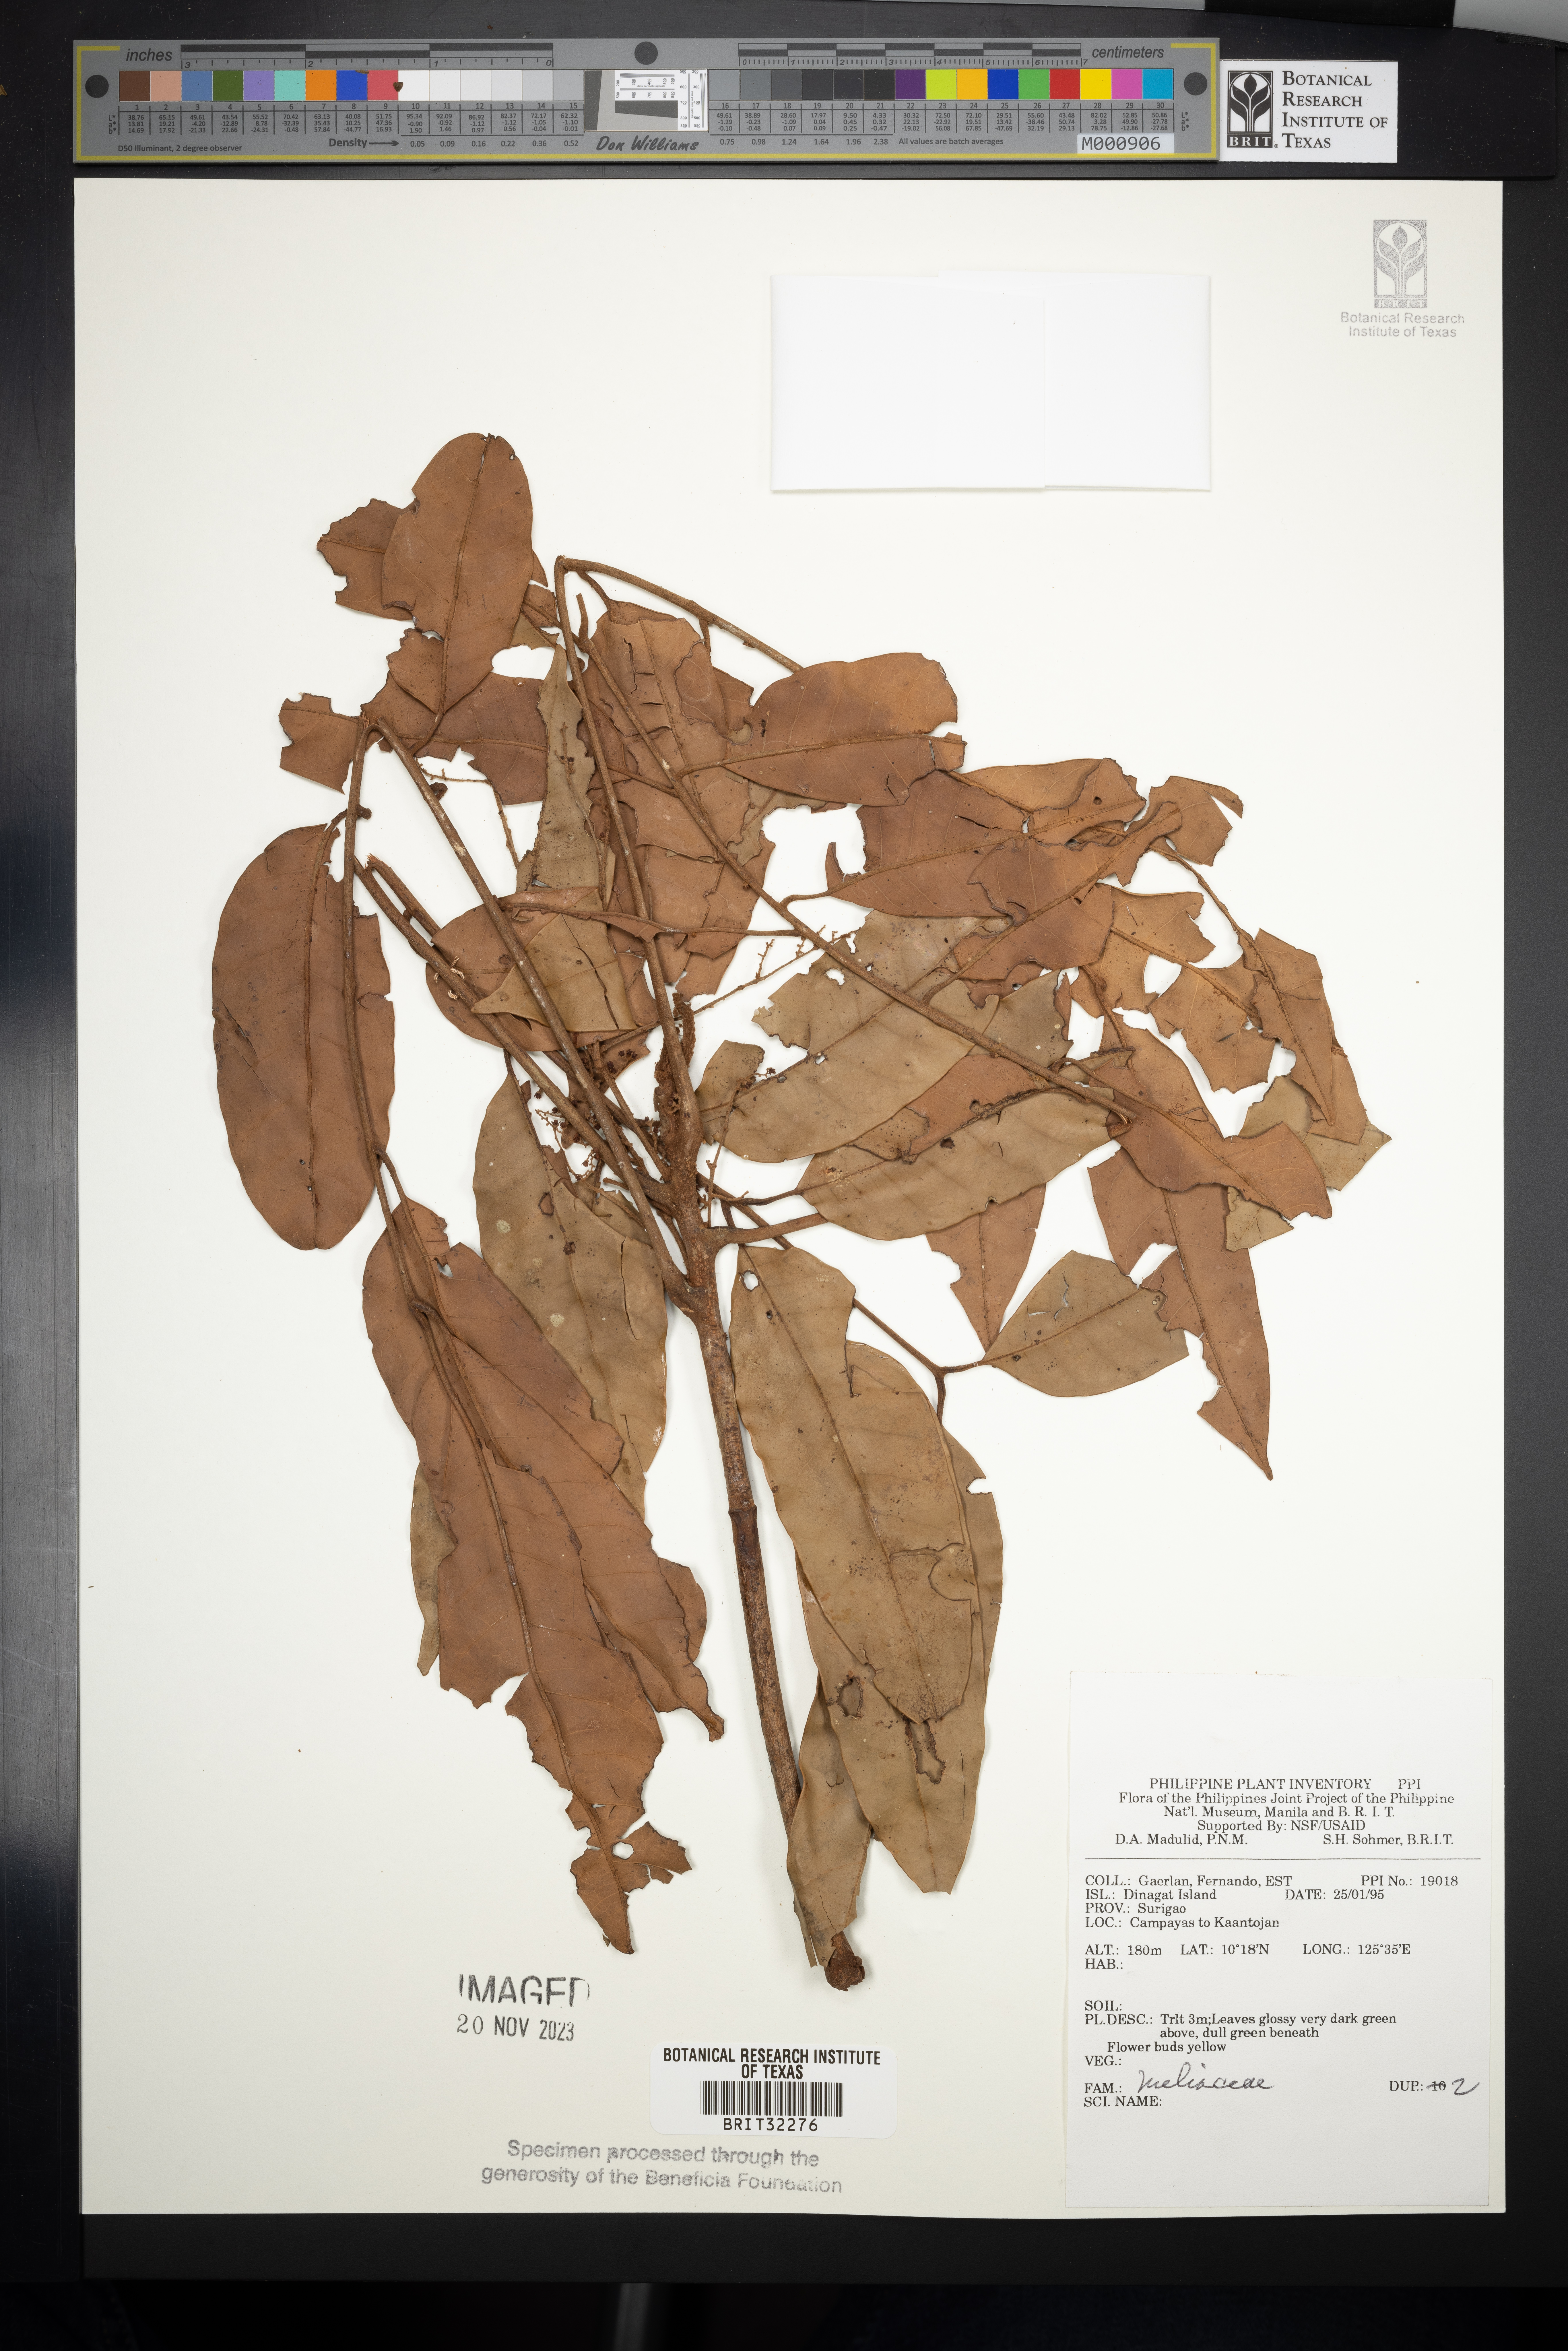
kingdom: Plantae
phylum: Tracheophyta
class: Magnoliopsida
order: Sapindales
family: Meliaceae
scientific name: Meliaceae
